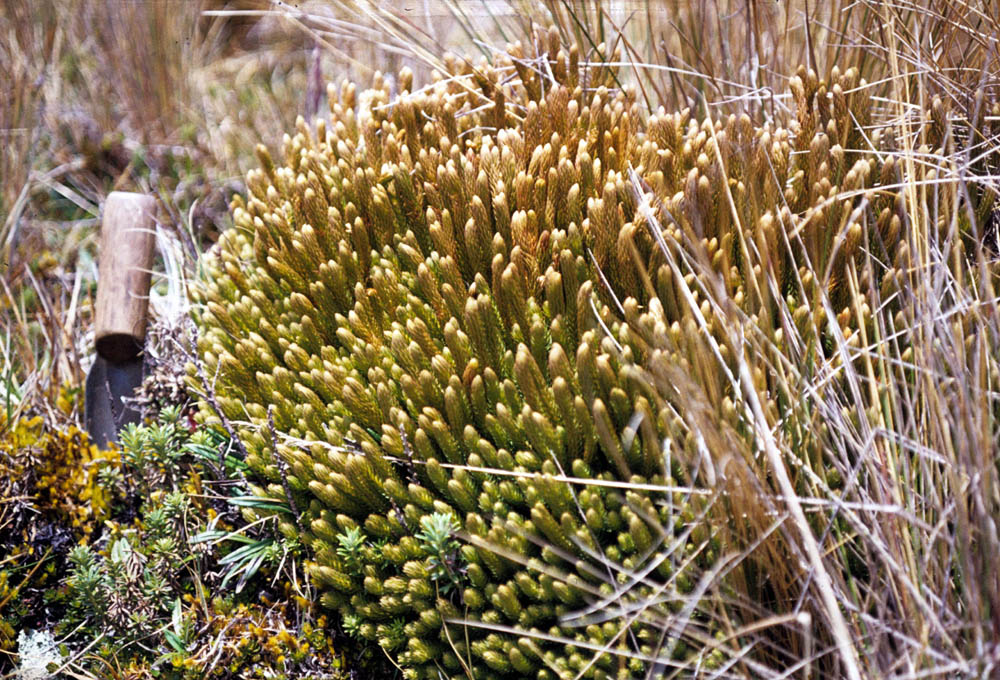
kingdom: Plantae
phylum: Tracheophyta
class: Lycopodiopsida
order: Lycopodiales
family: Lycopodiaceae
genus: Phlegmariurus
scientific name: Phlegmariurus cumingii
